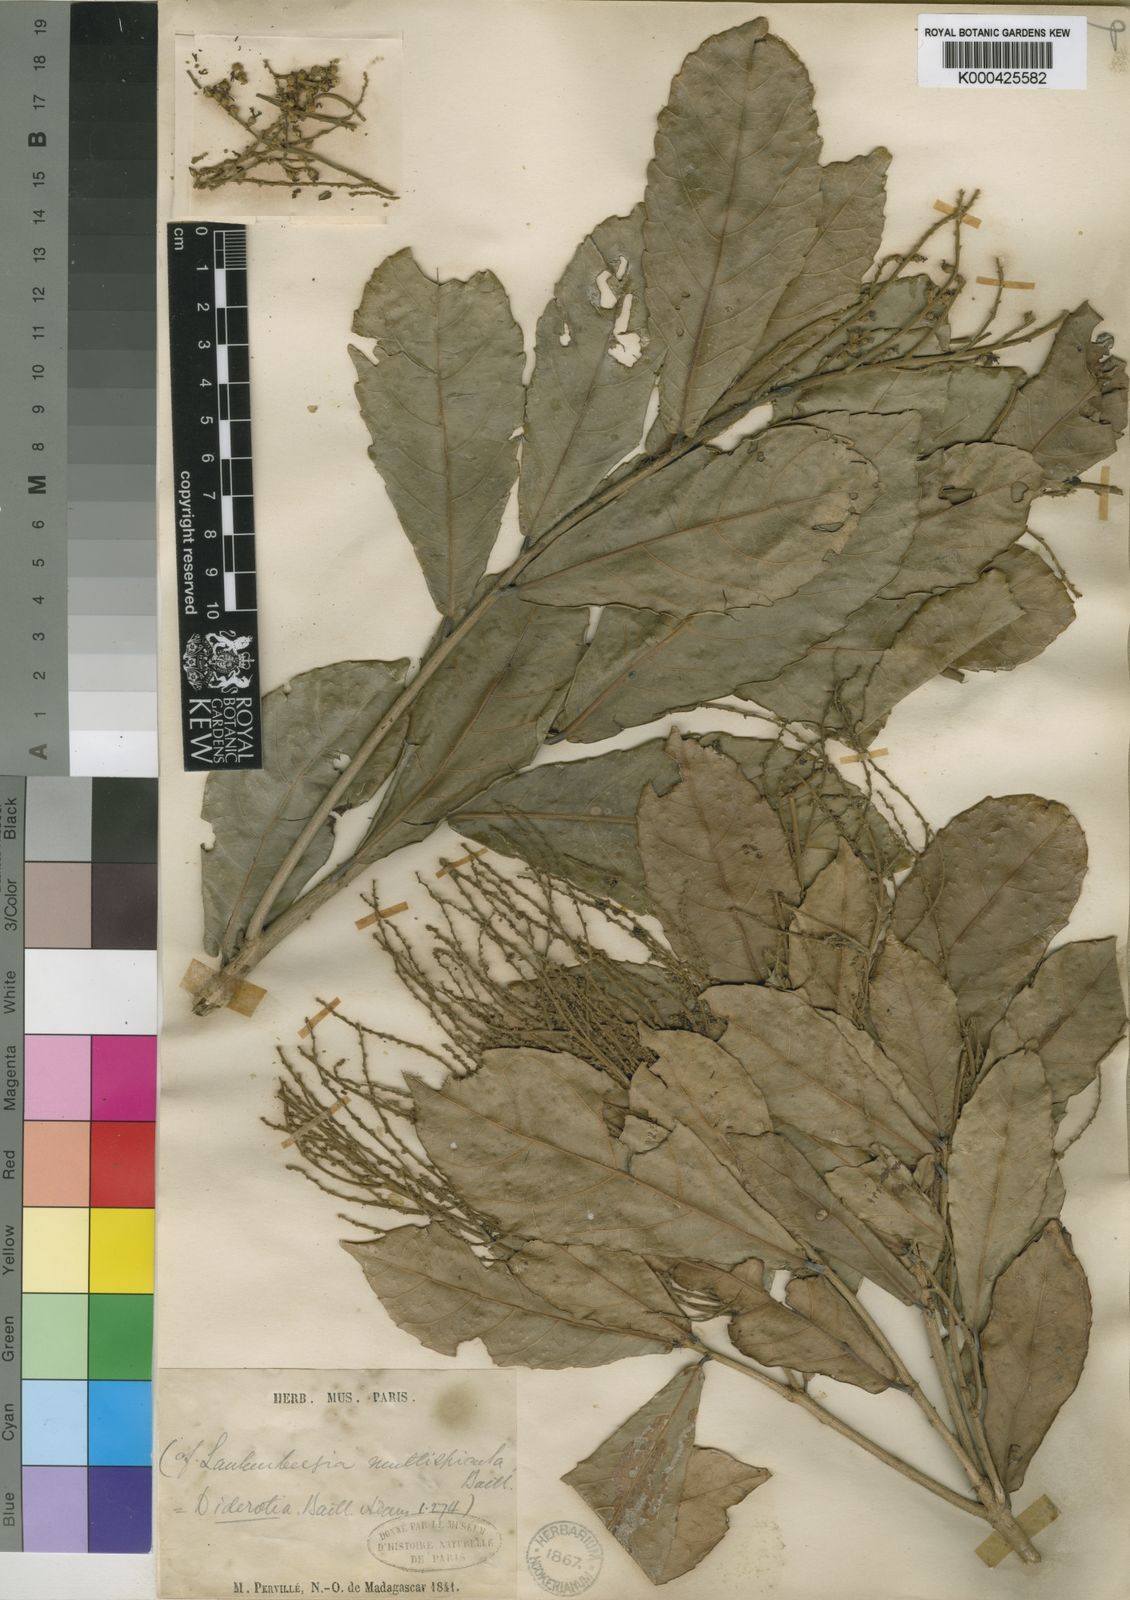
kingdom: Plantae
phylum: Tracheophyta
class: Magnoliopsida
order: Malpighiales
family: Euphorbiaceae
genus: Orfilea
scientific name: Orfilea multispicata
